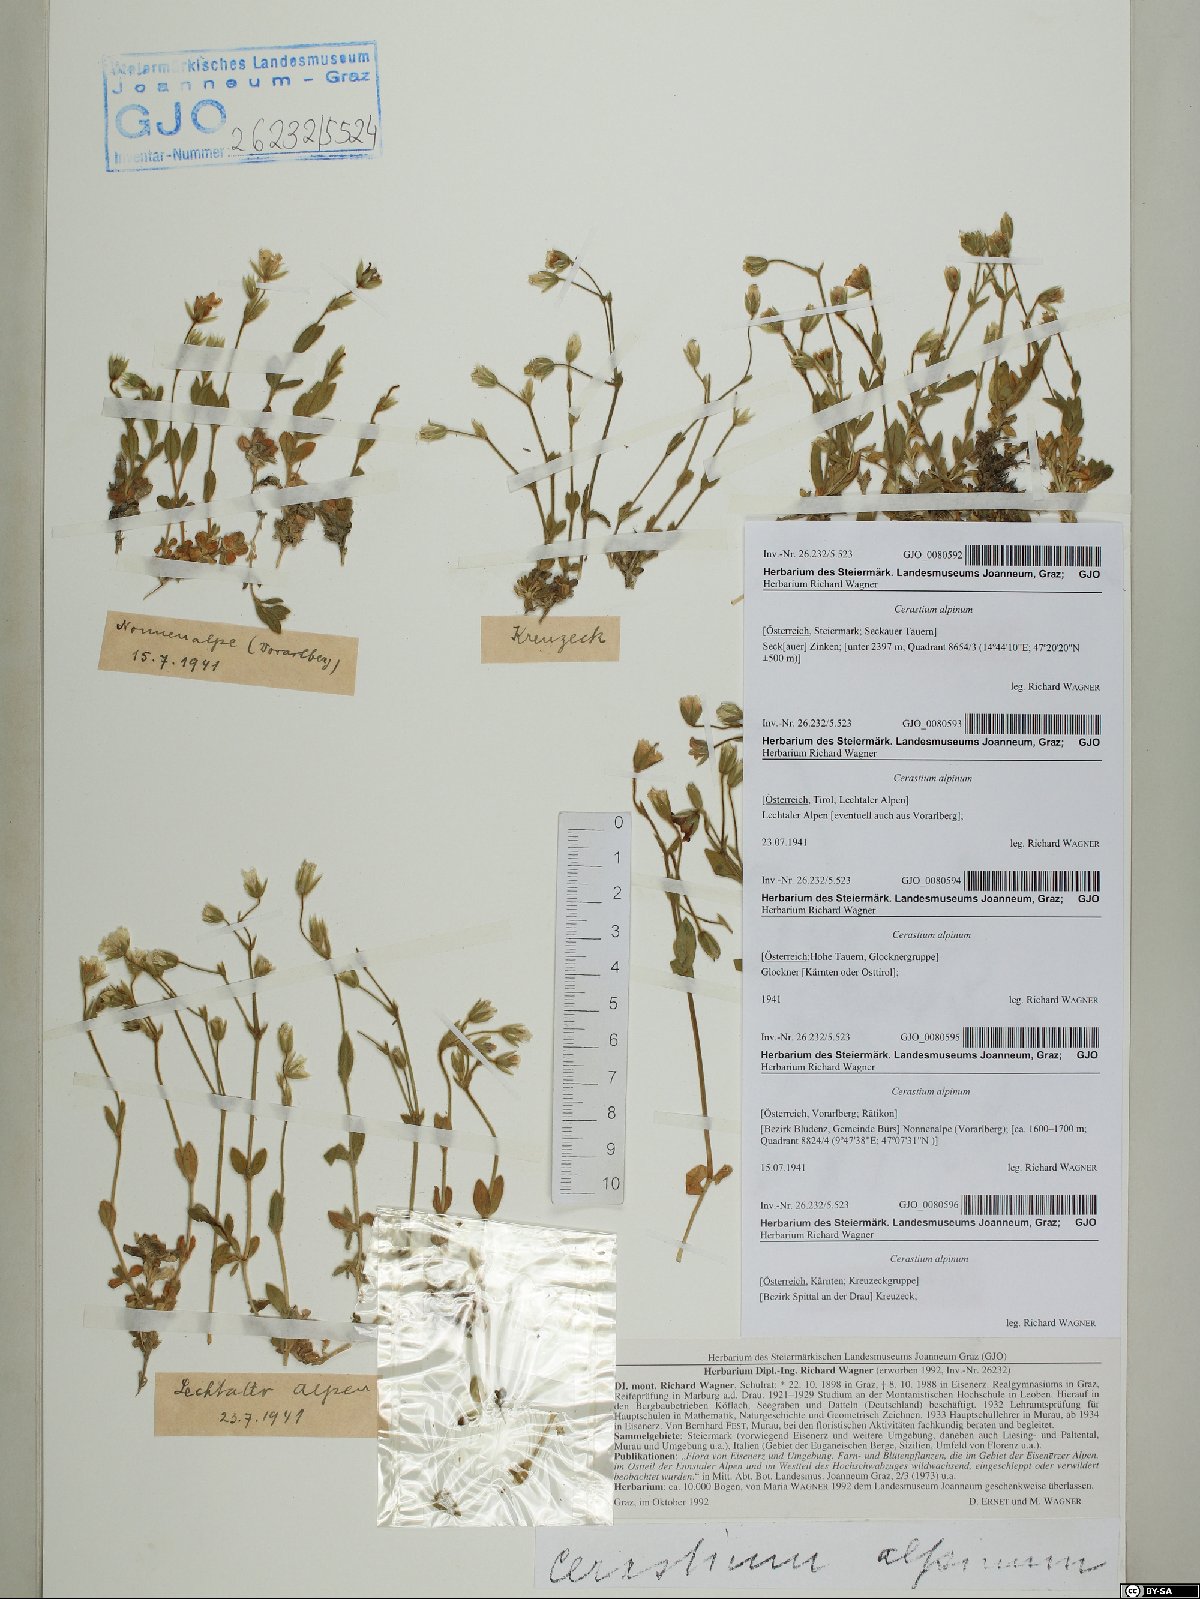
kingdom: Plantae
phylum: Tracheophyta
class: Magnoliopsida
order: Caryophyllales
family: Caryophyllaceae
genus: Cerastium
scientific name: Cerastium alpinum
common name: Alpine mouse-ear
